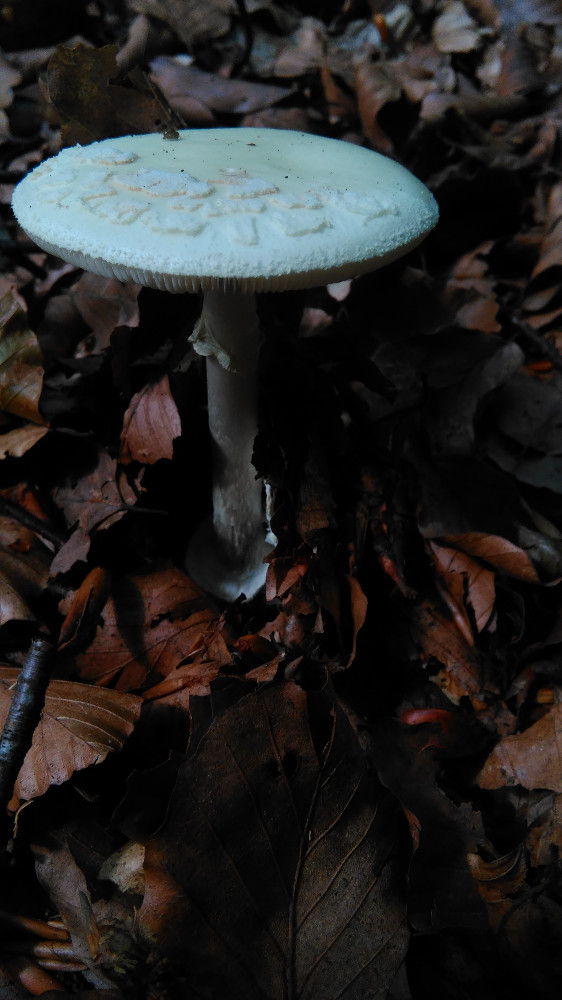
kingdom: Fungi
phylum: Basidiomycota
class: Agaricomycetes
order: Agaricales
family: Amanitaceae
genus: Amanita
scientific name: Amanita citrina
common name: kugleknoldet fluesvamp
